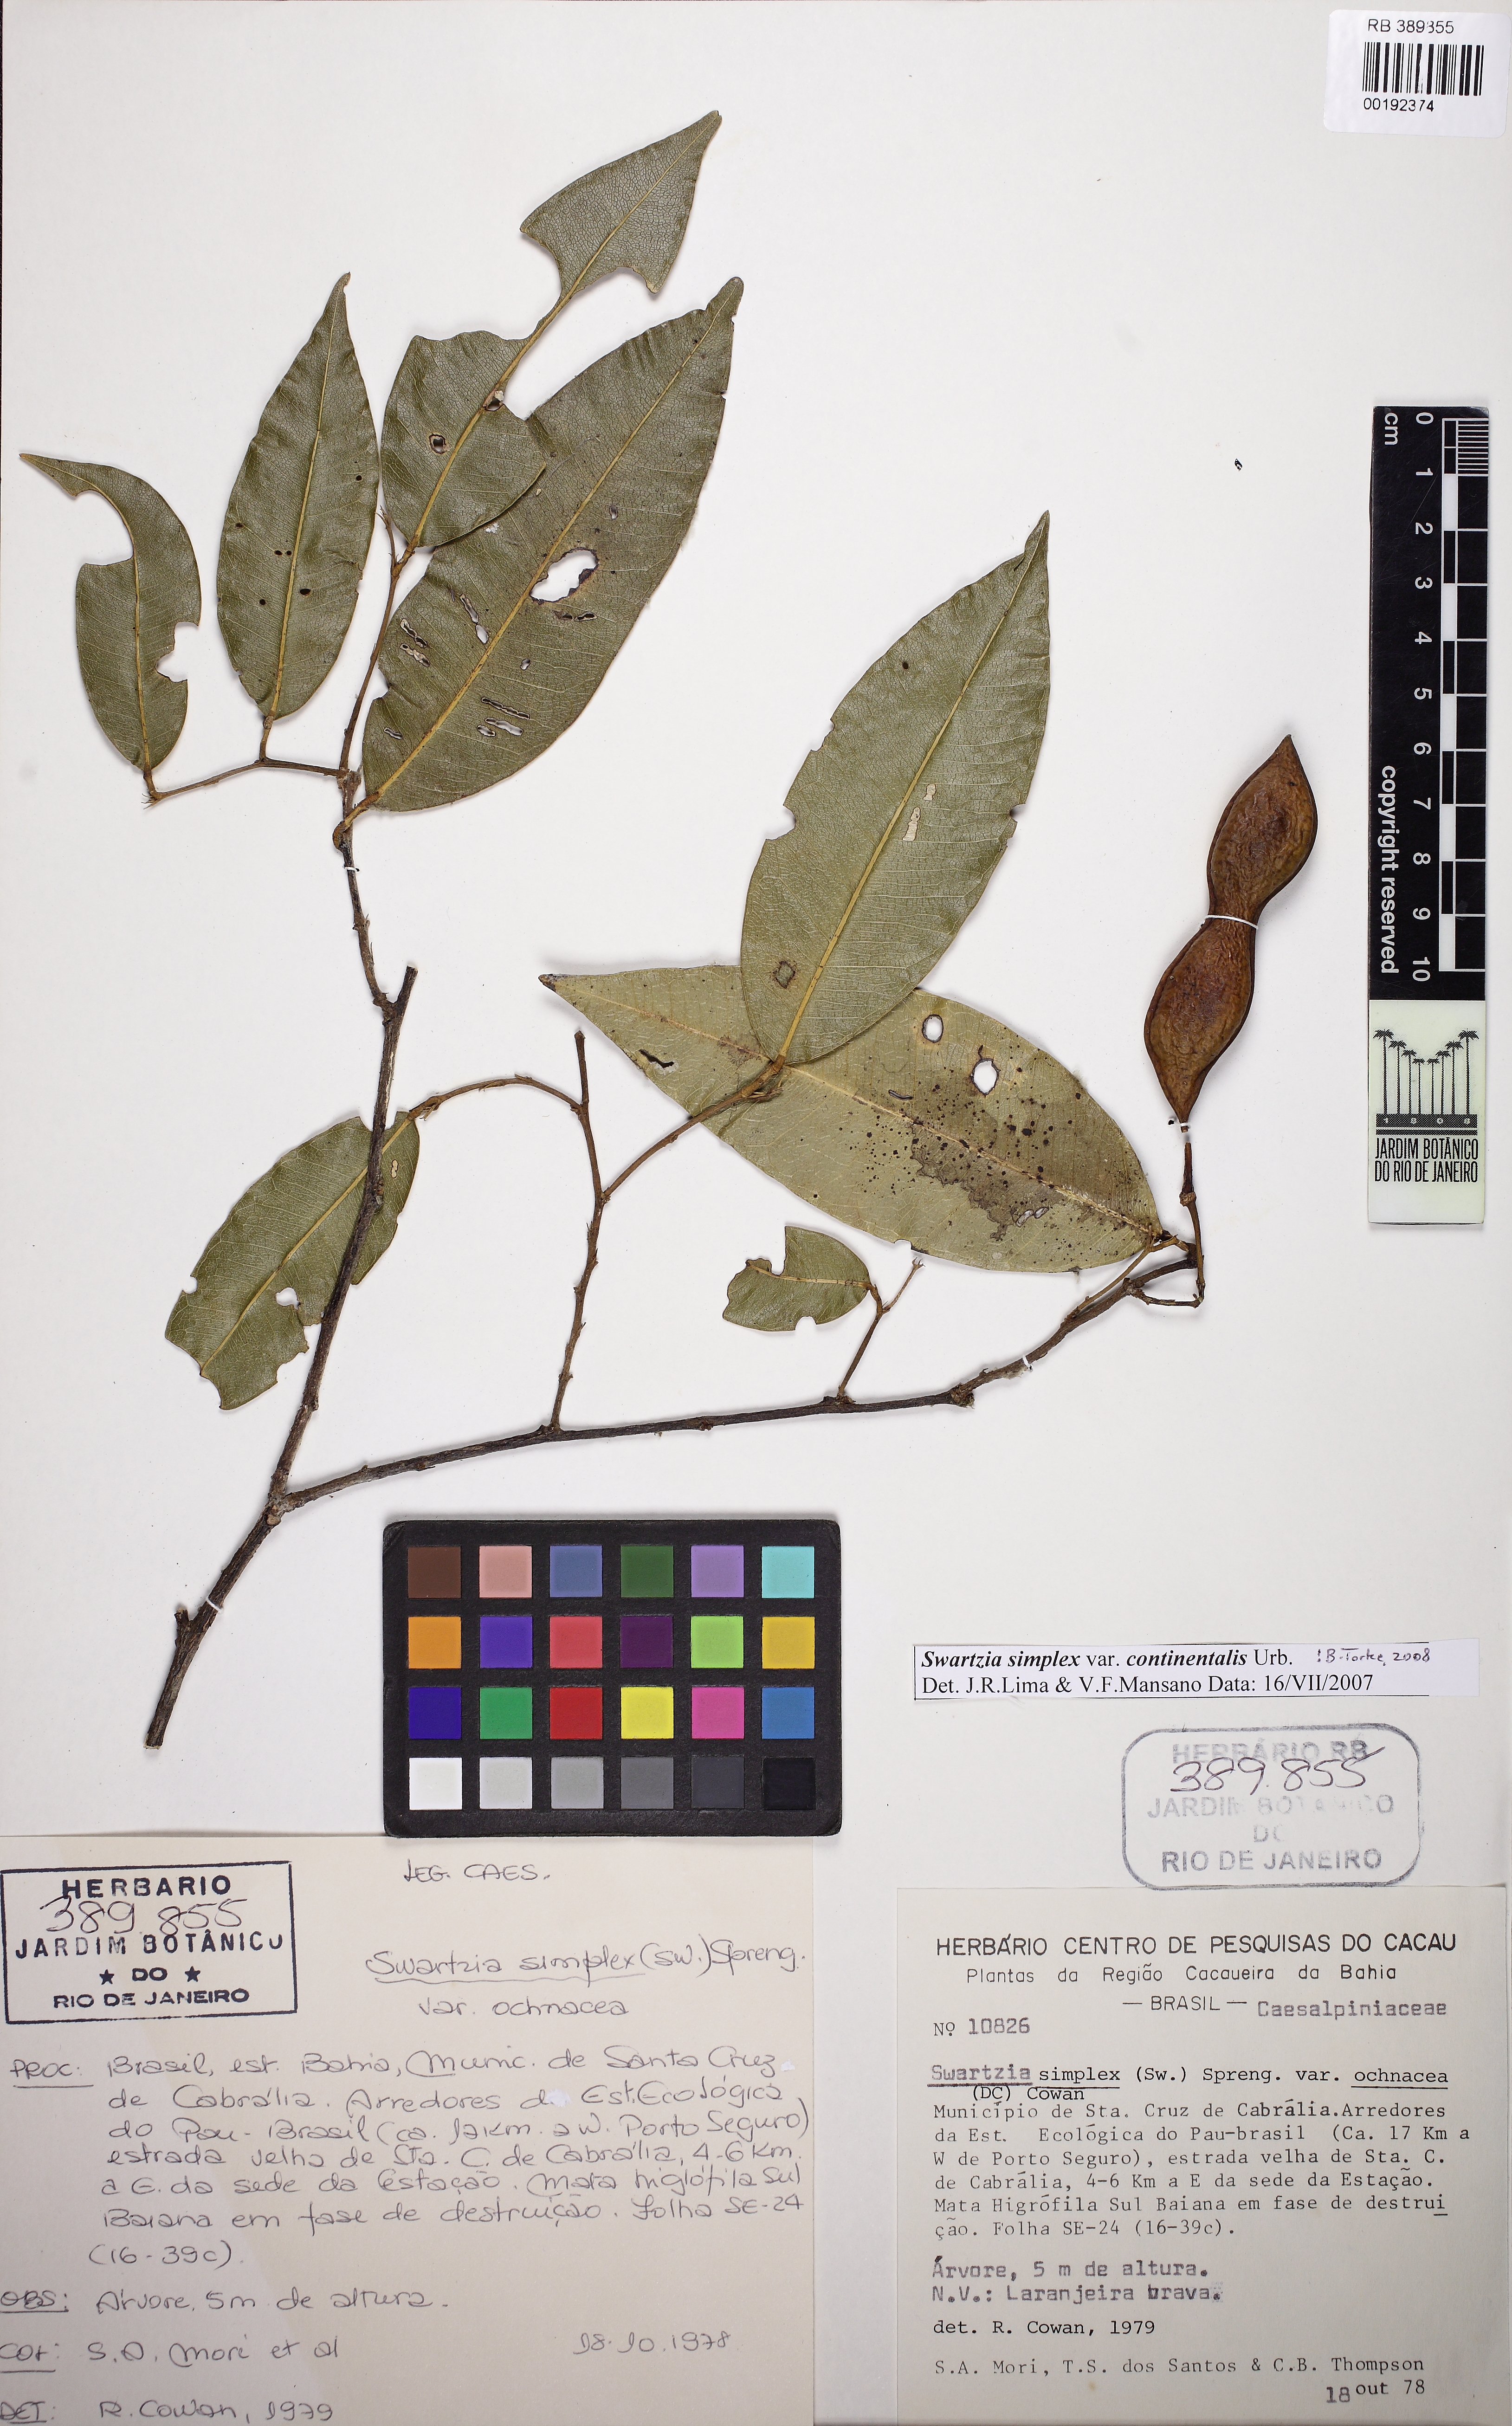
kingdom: Plantae
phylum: Tracheophyta
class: Magnoliopsida
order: Fabales
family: Fabaceae
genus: Swartzia
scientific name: Swartzia simplex
